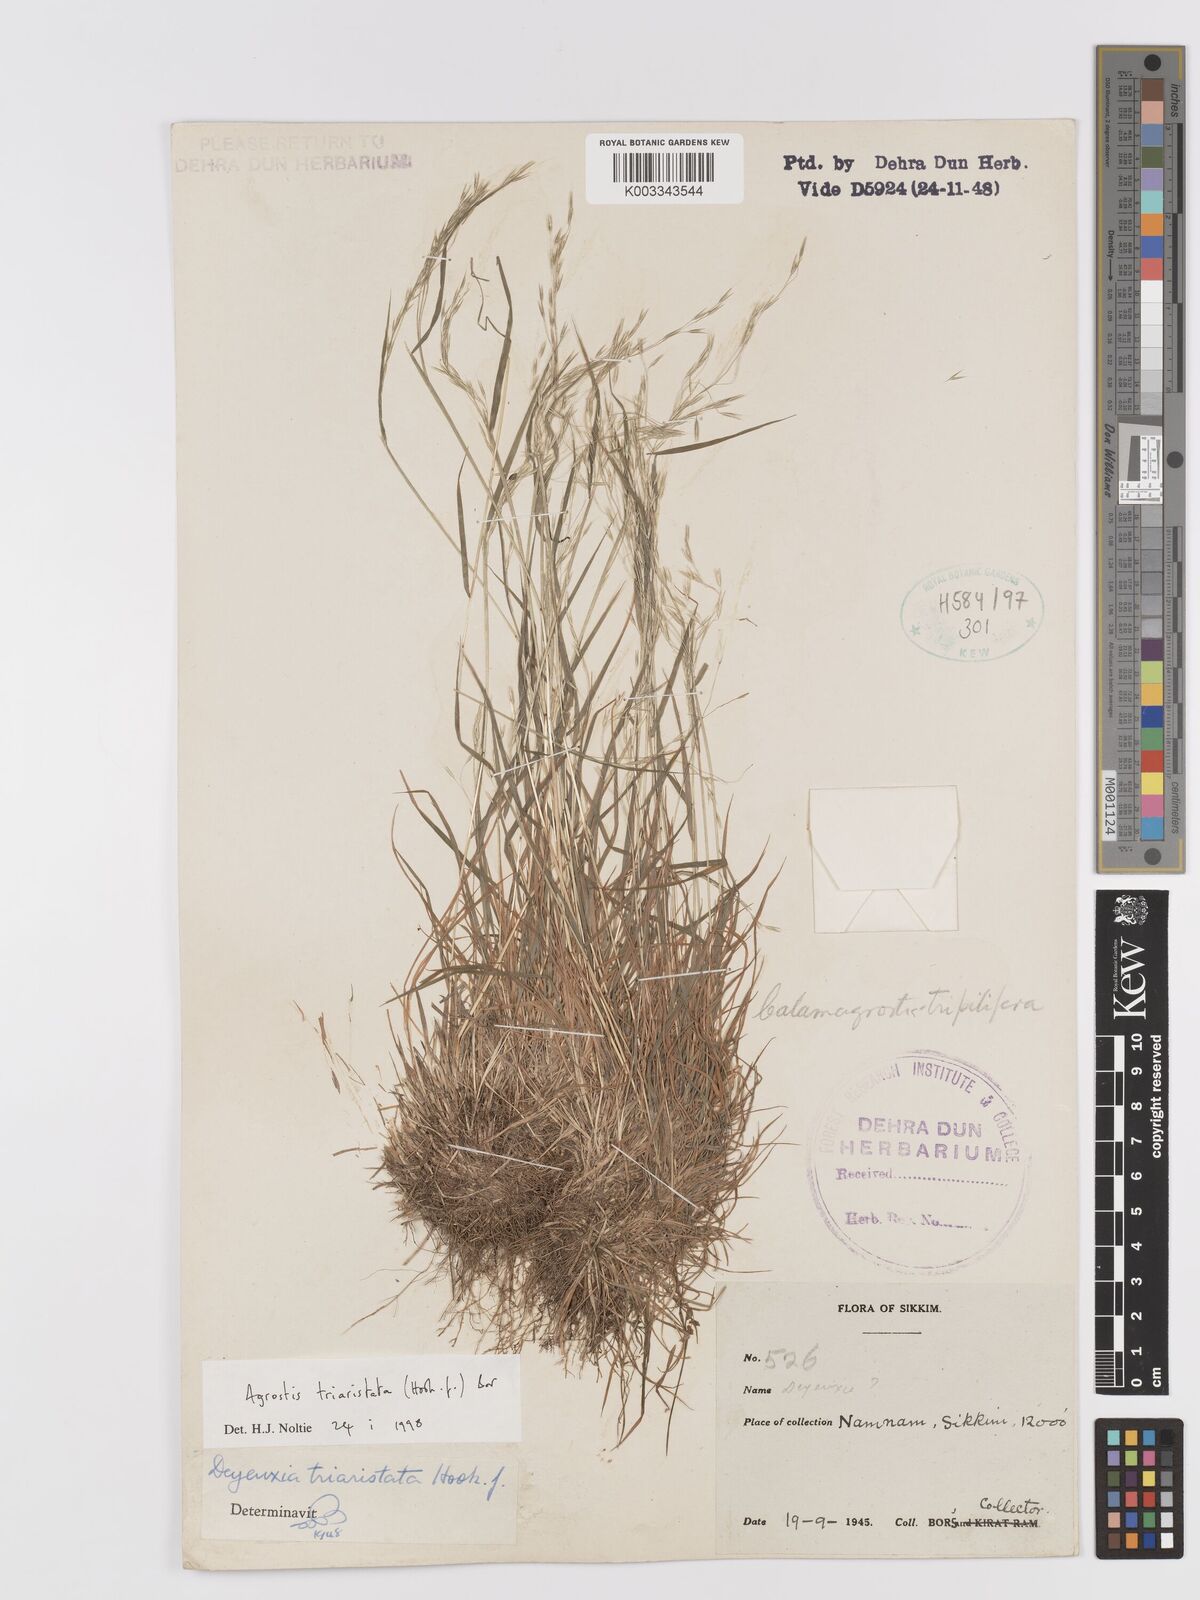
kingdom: Plantae
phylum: Tracheophyta
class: Liliopsida
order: Poales
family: Poaceae
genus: Agrostis
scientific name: Agrostis
